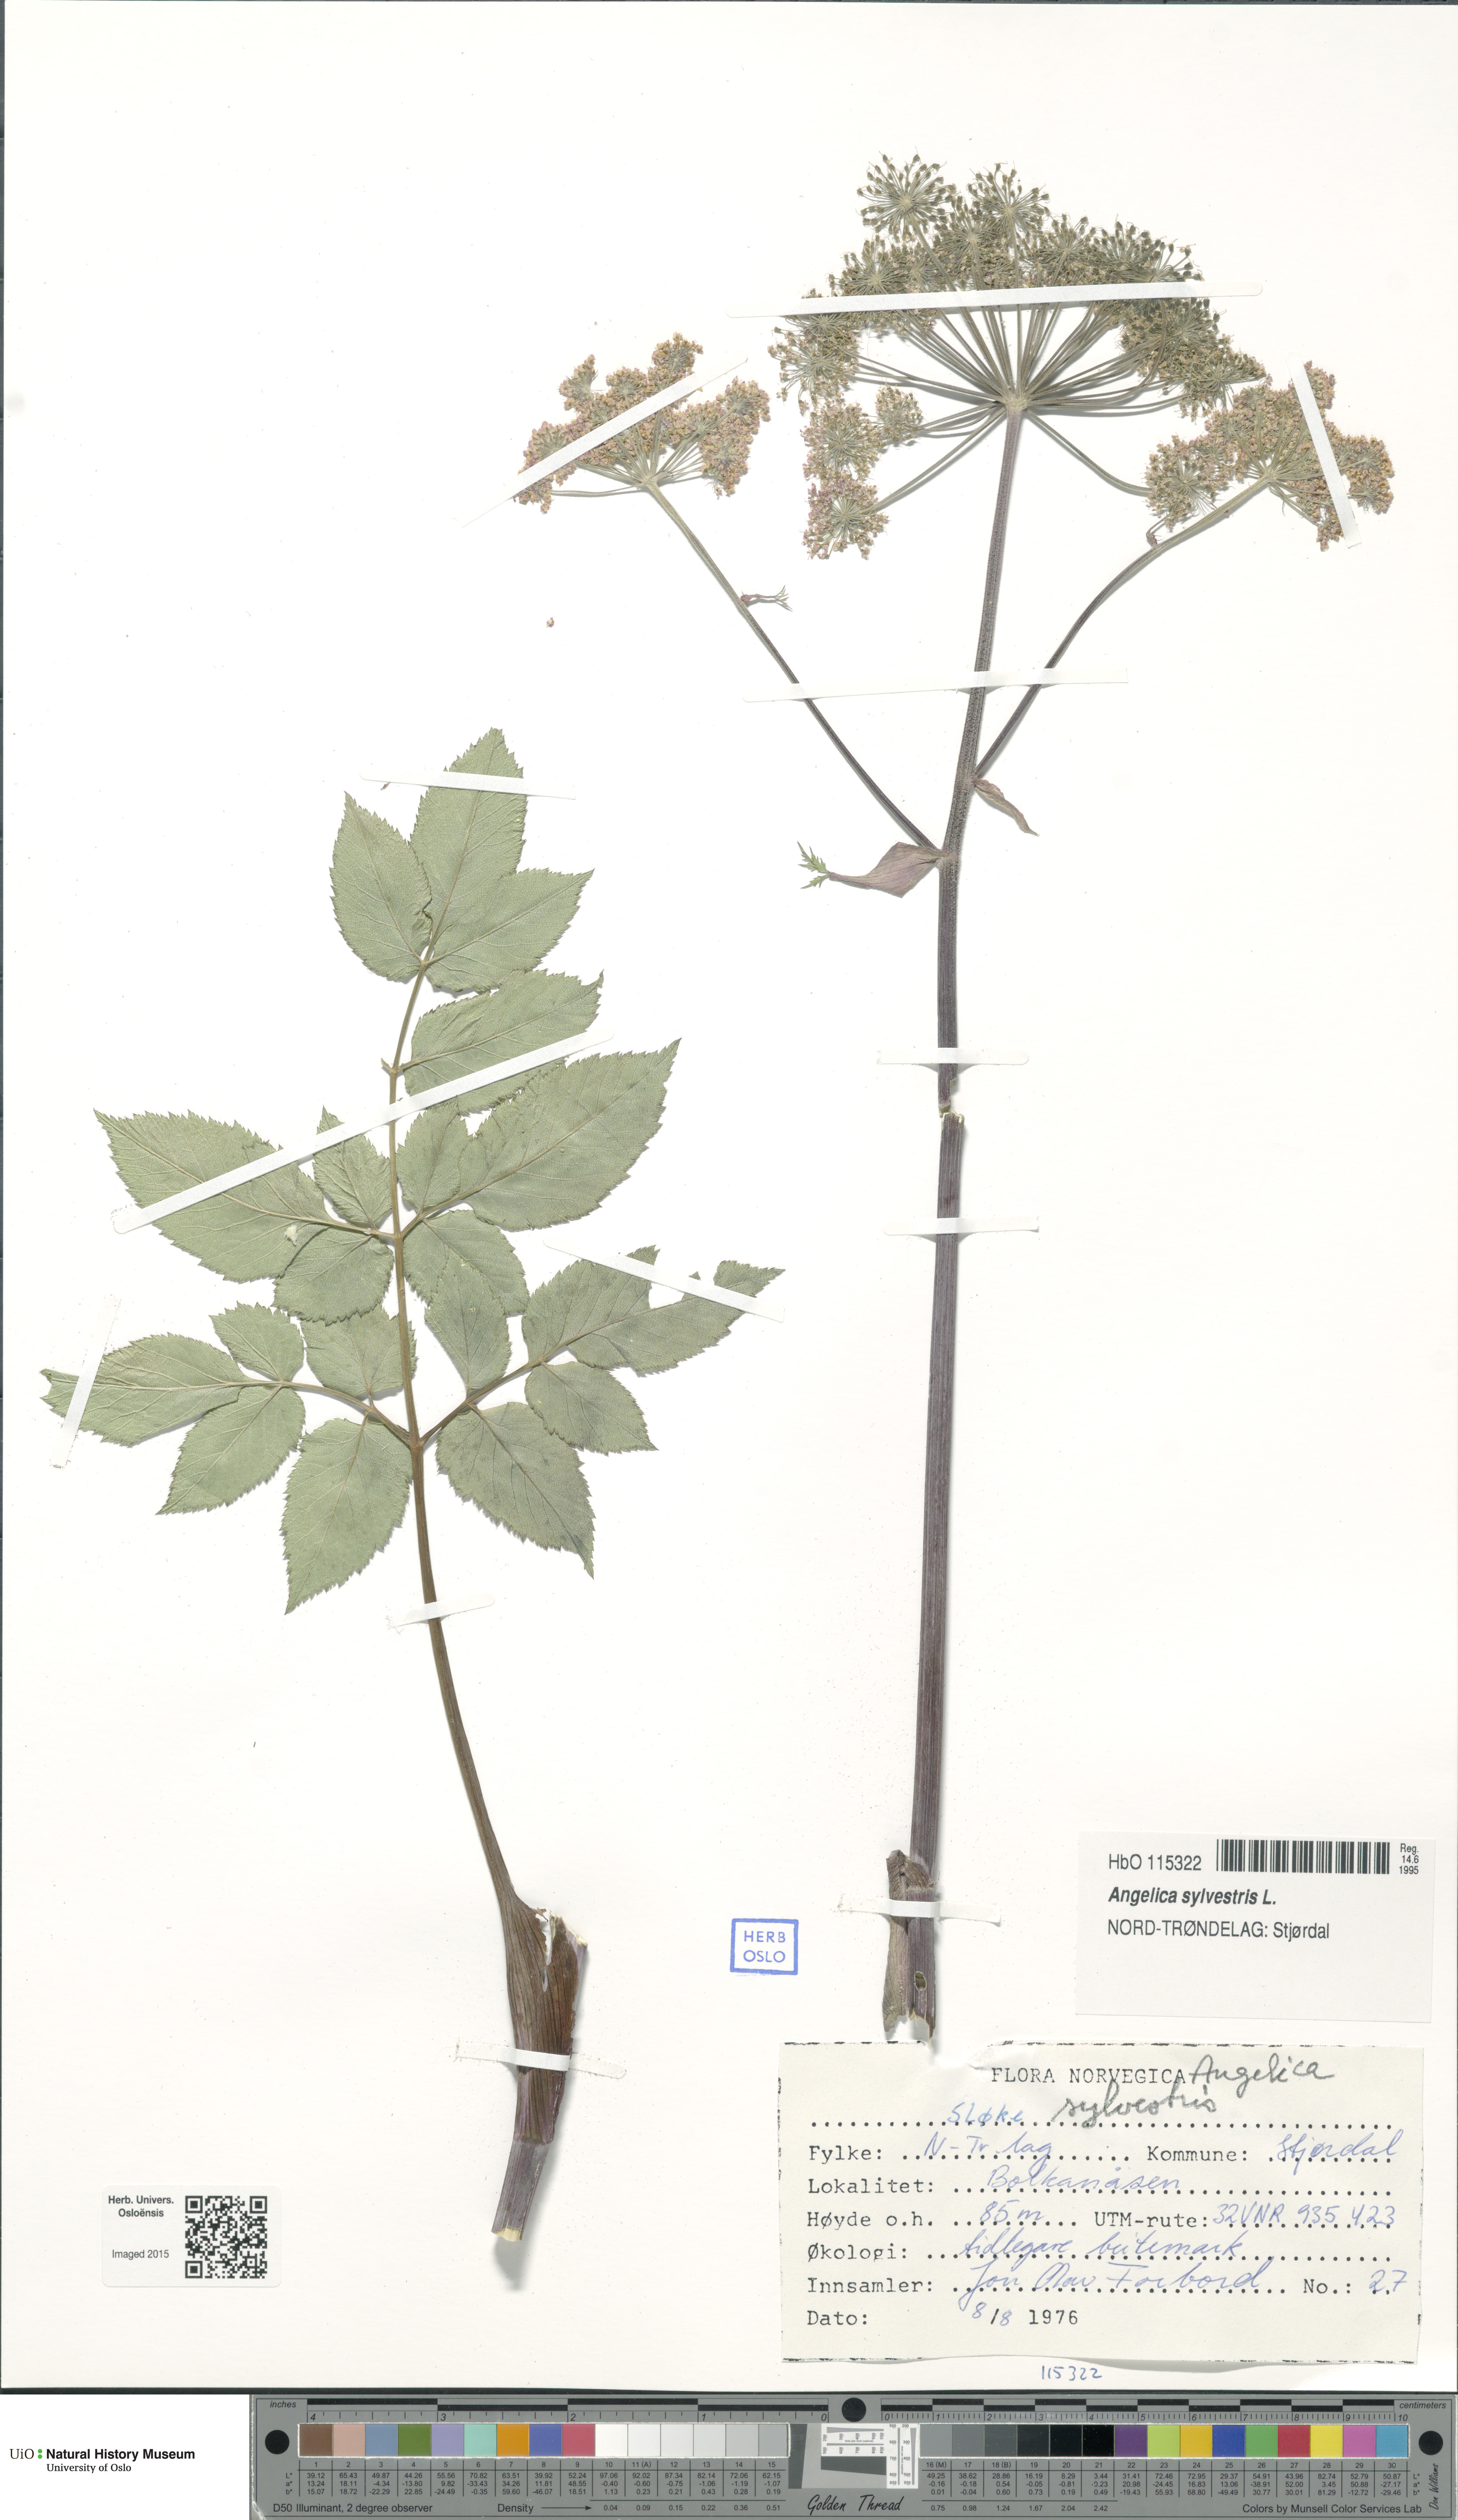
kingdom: Plantae
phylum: Tracheophyta
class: Magnoliopsida
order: Apiales
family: Apiaceae
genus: Angelica
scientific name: Angelica sylvestris
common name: Wild angelica
